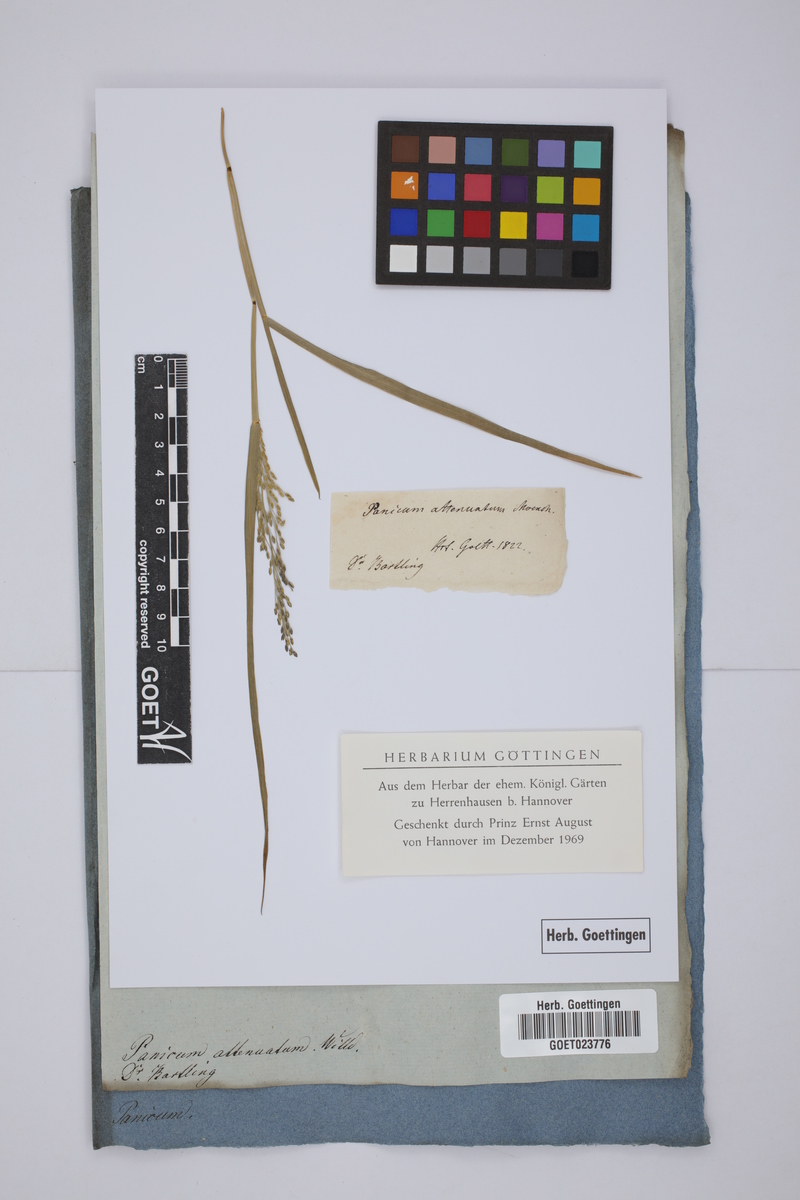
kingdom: Plantae
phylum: Tracheophyta
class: Liliopsida
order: Poales
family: Poaceae
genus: Panicum
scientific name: Panicum sumatrense
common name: Little millet
